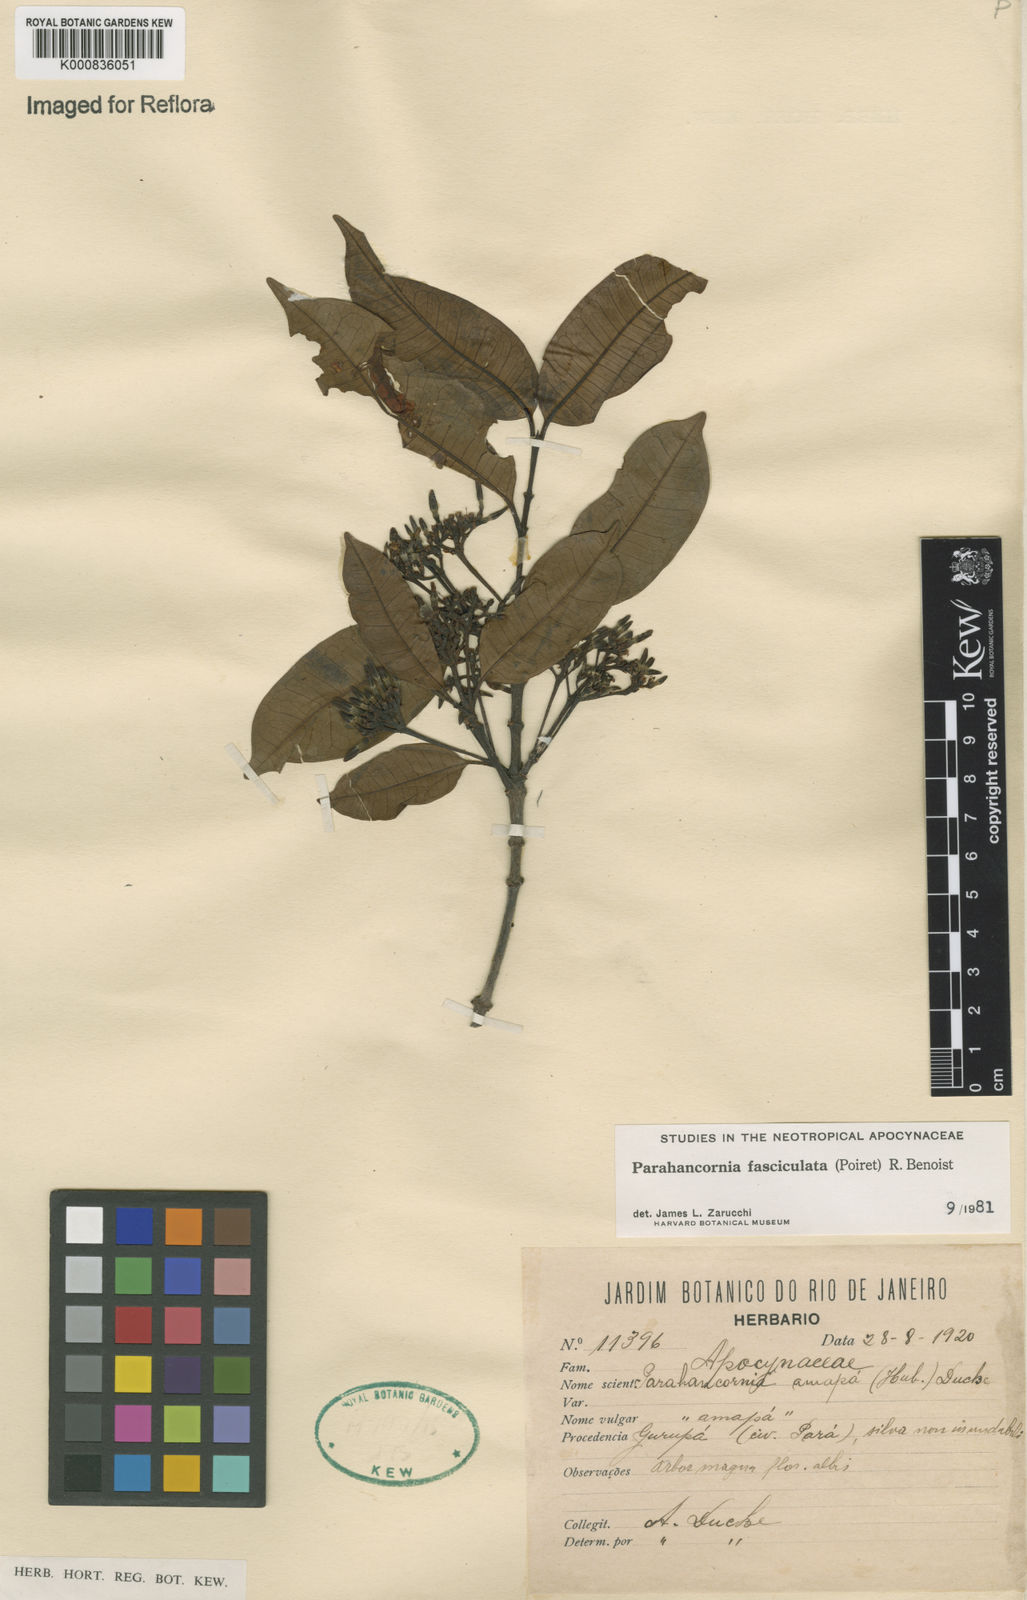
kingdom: Plantae
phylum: Tracheophyta
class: Magnoliopsida
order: Gentianales
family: Apocynaceae
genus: Parahancornia
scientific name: Parahancornia fasciculata
